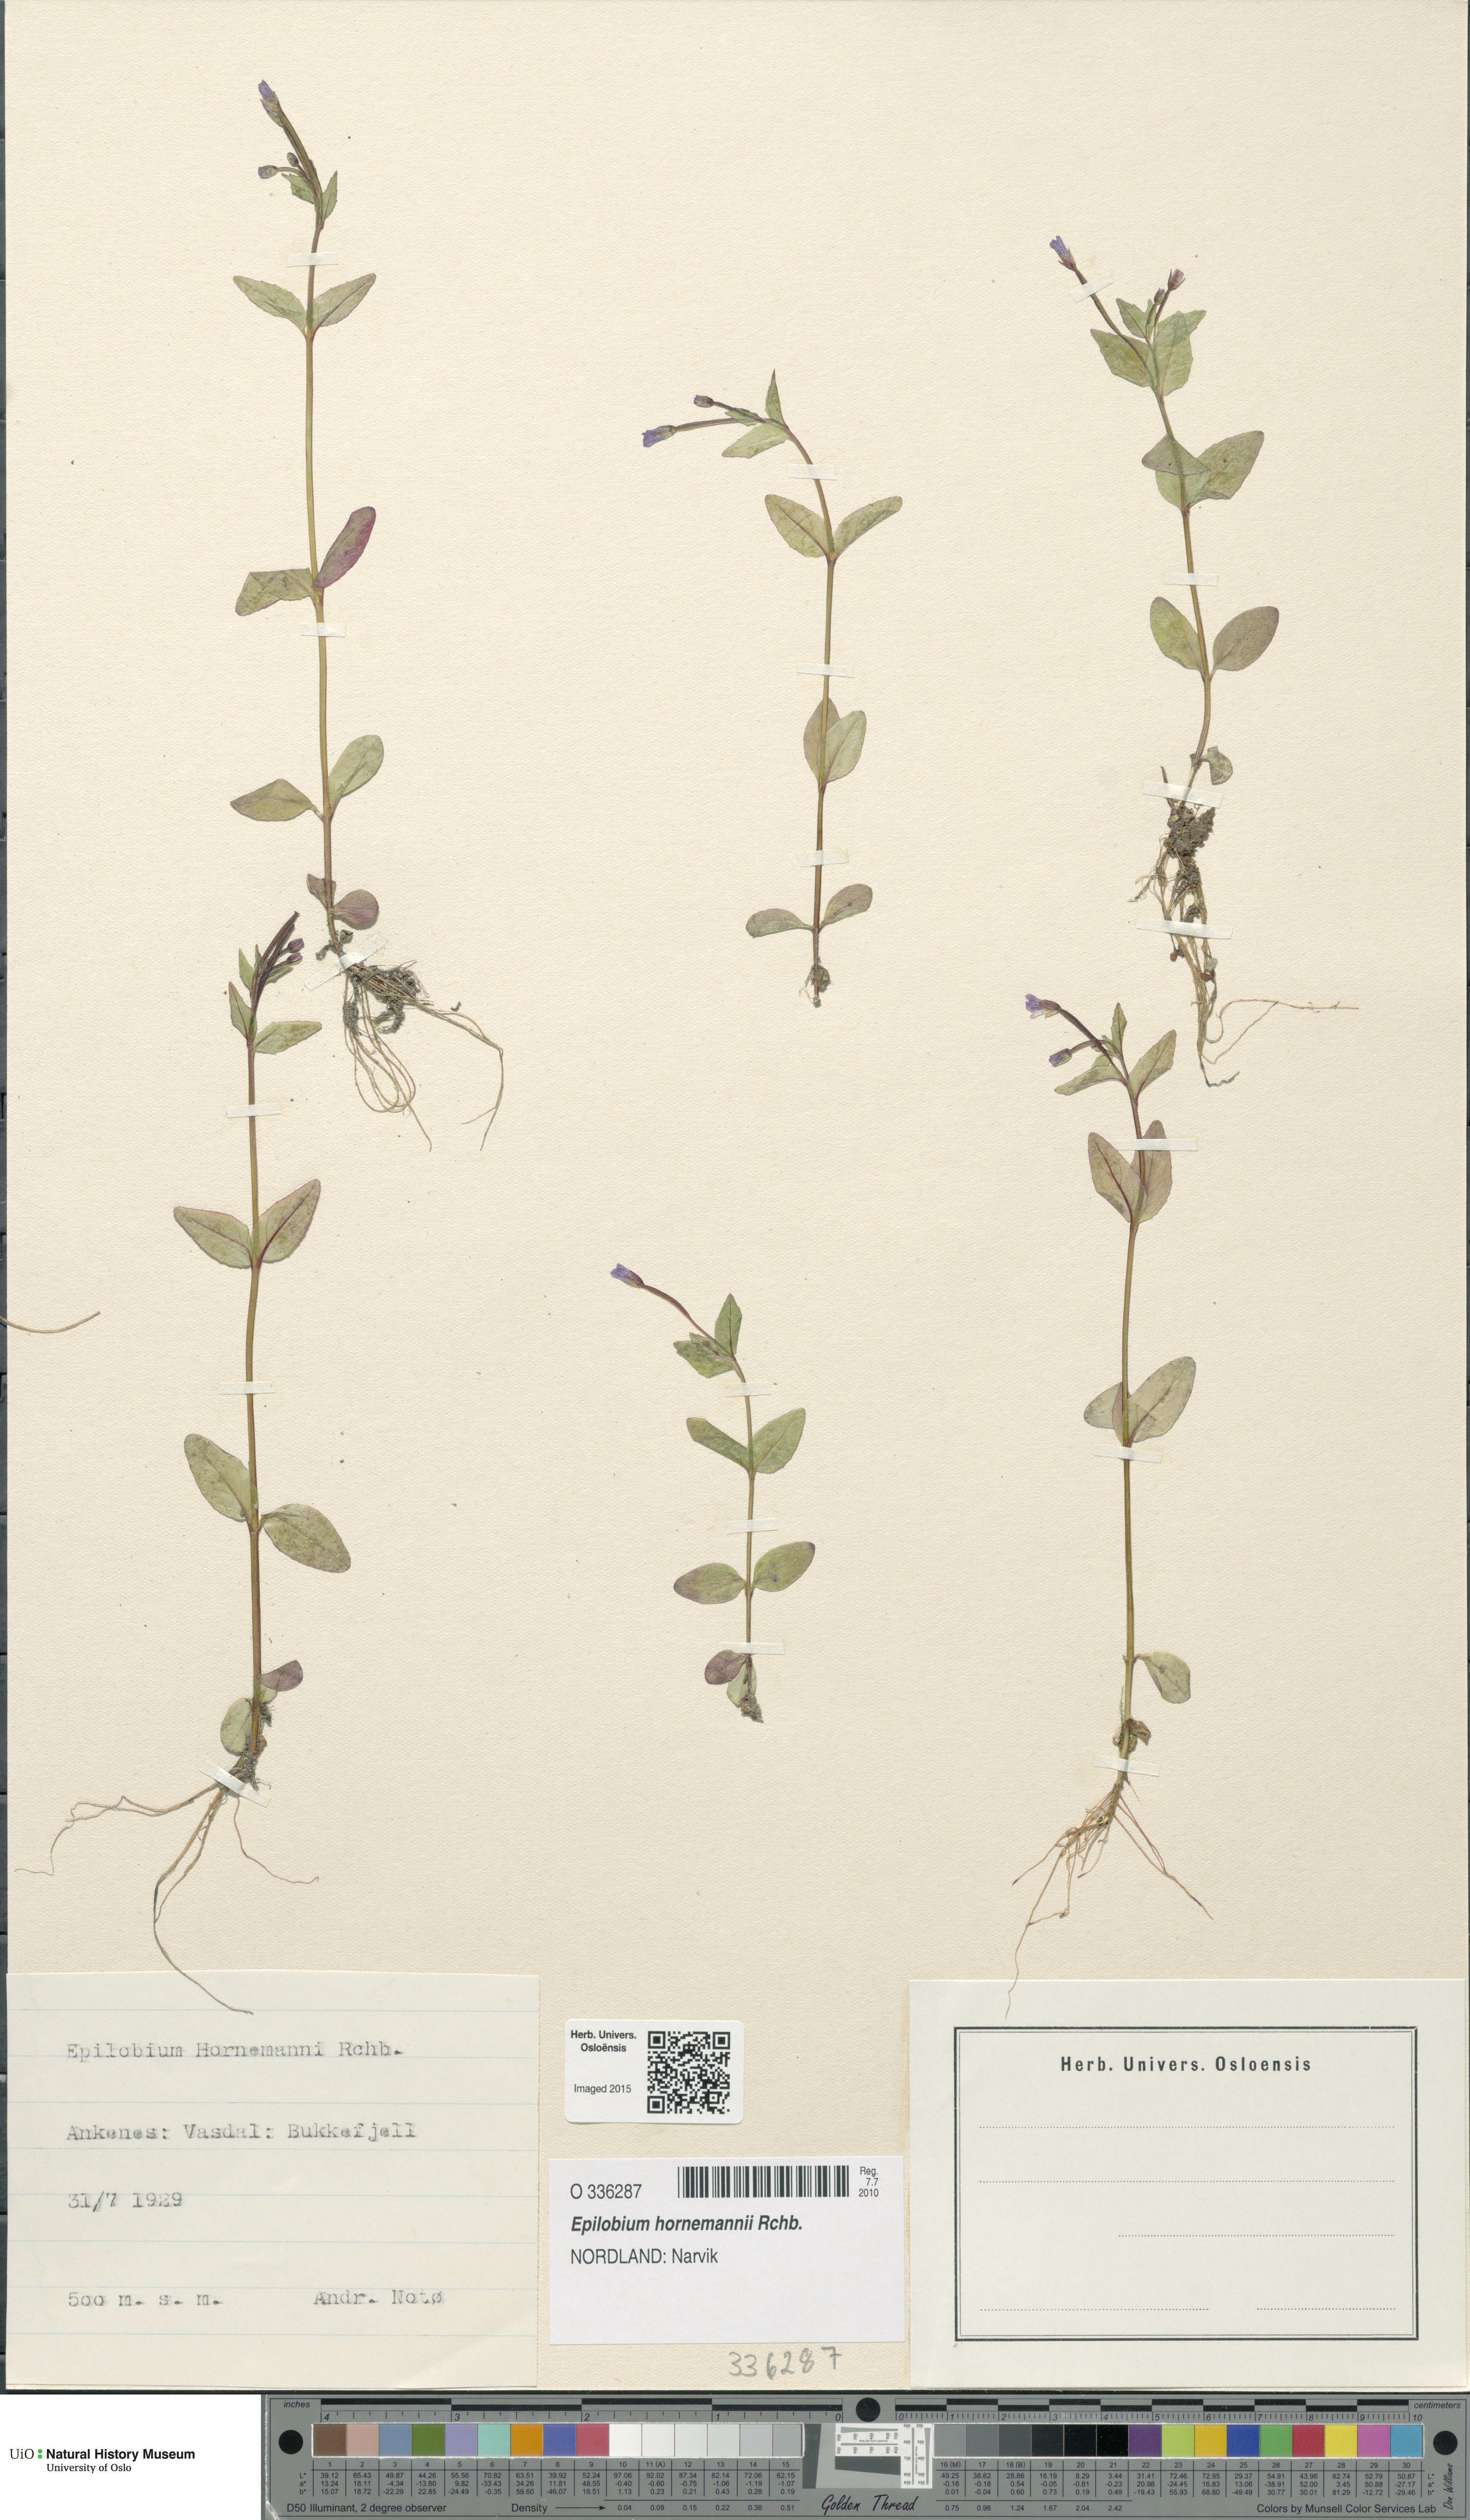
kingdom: Plantae
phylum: Tracheophyta
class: Magnoliopsida
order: Myrtales
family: Onagraceae
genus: Epilobium
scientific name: Epilobium hornemannii
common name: Hornemann's willowherb
